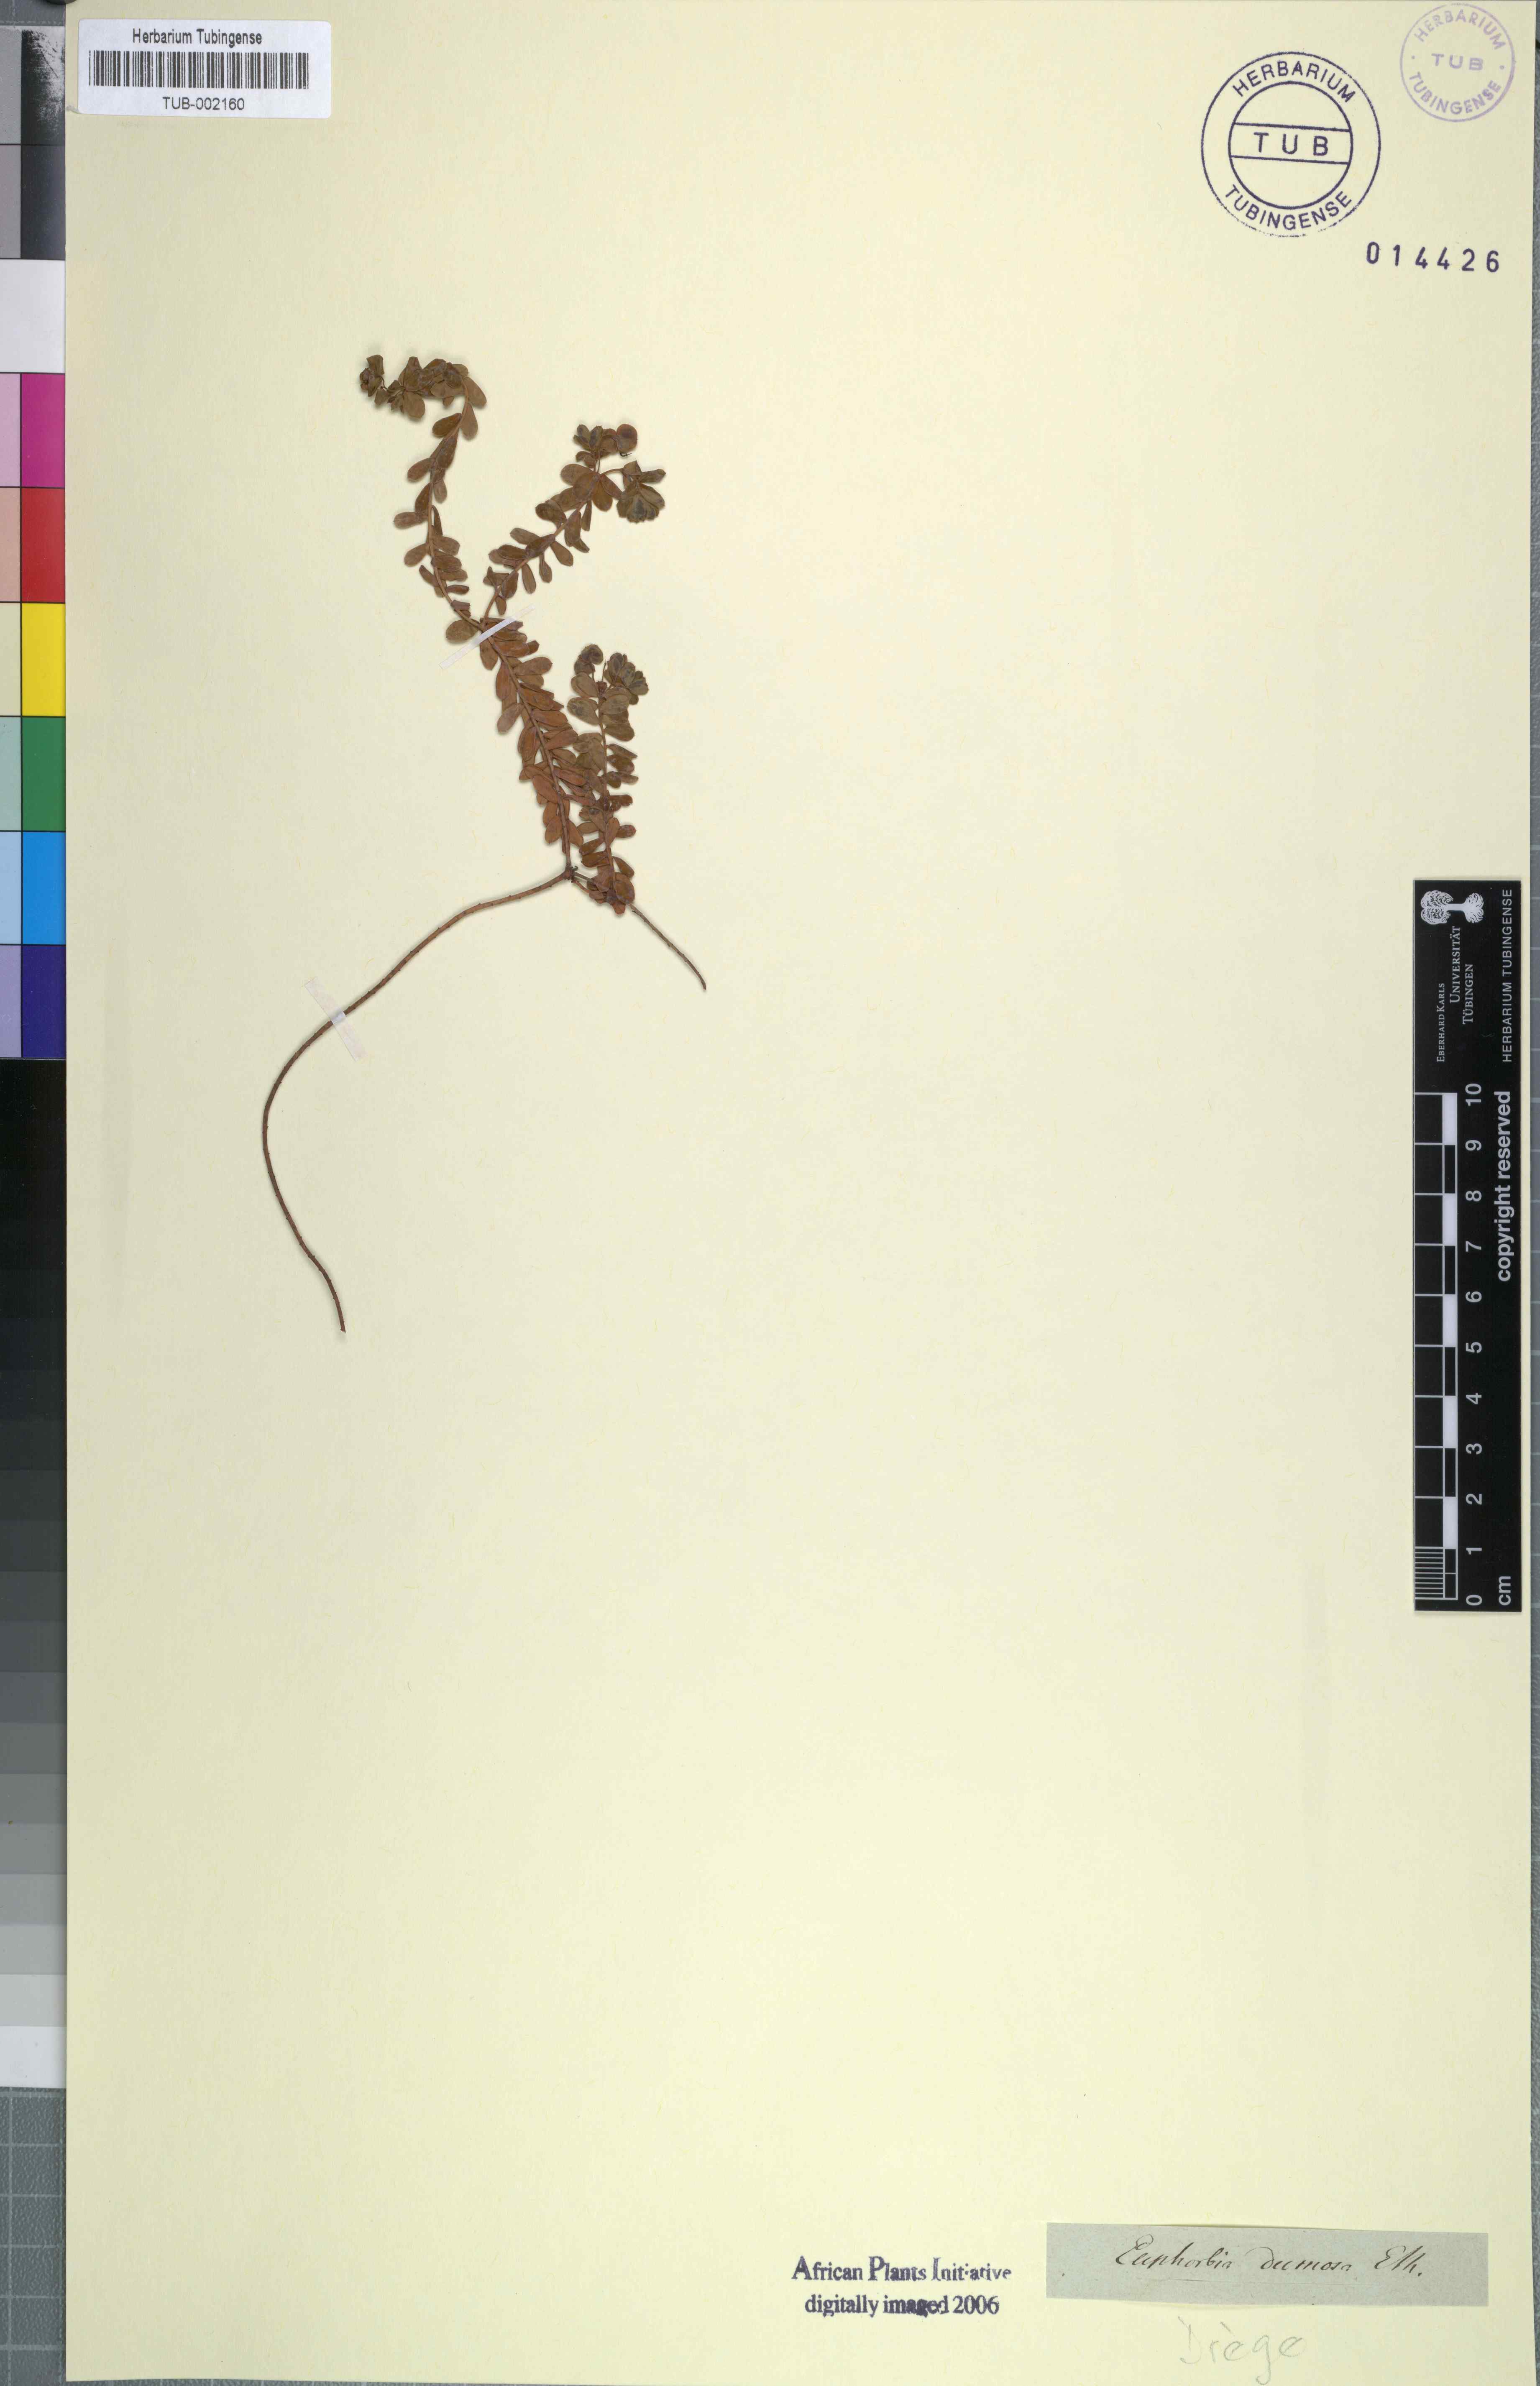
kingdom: Plantae
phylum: Tracheophyta
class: Magnoliopsida
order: Malpighiales
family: Euphorbiaceae
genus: Euphorbia
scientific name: Euphorbia hierosolymitana
